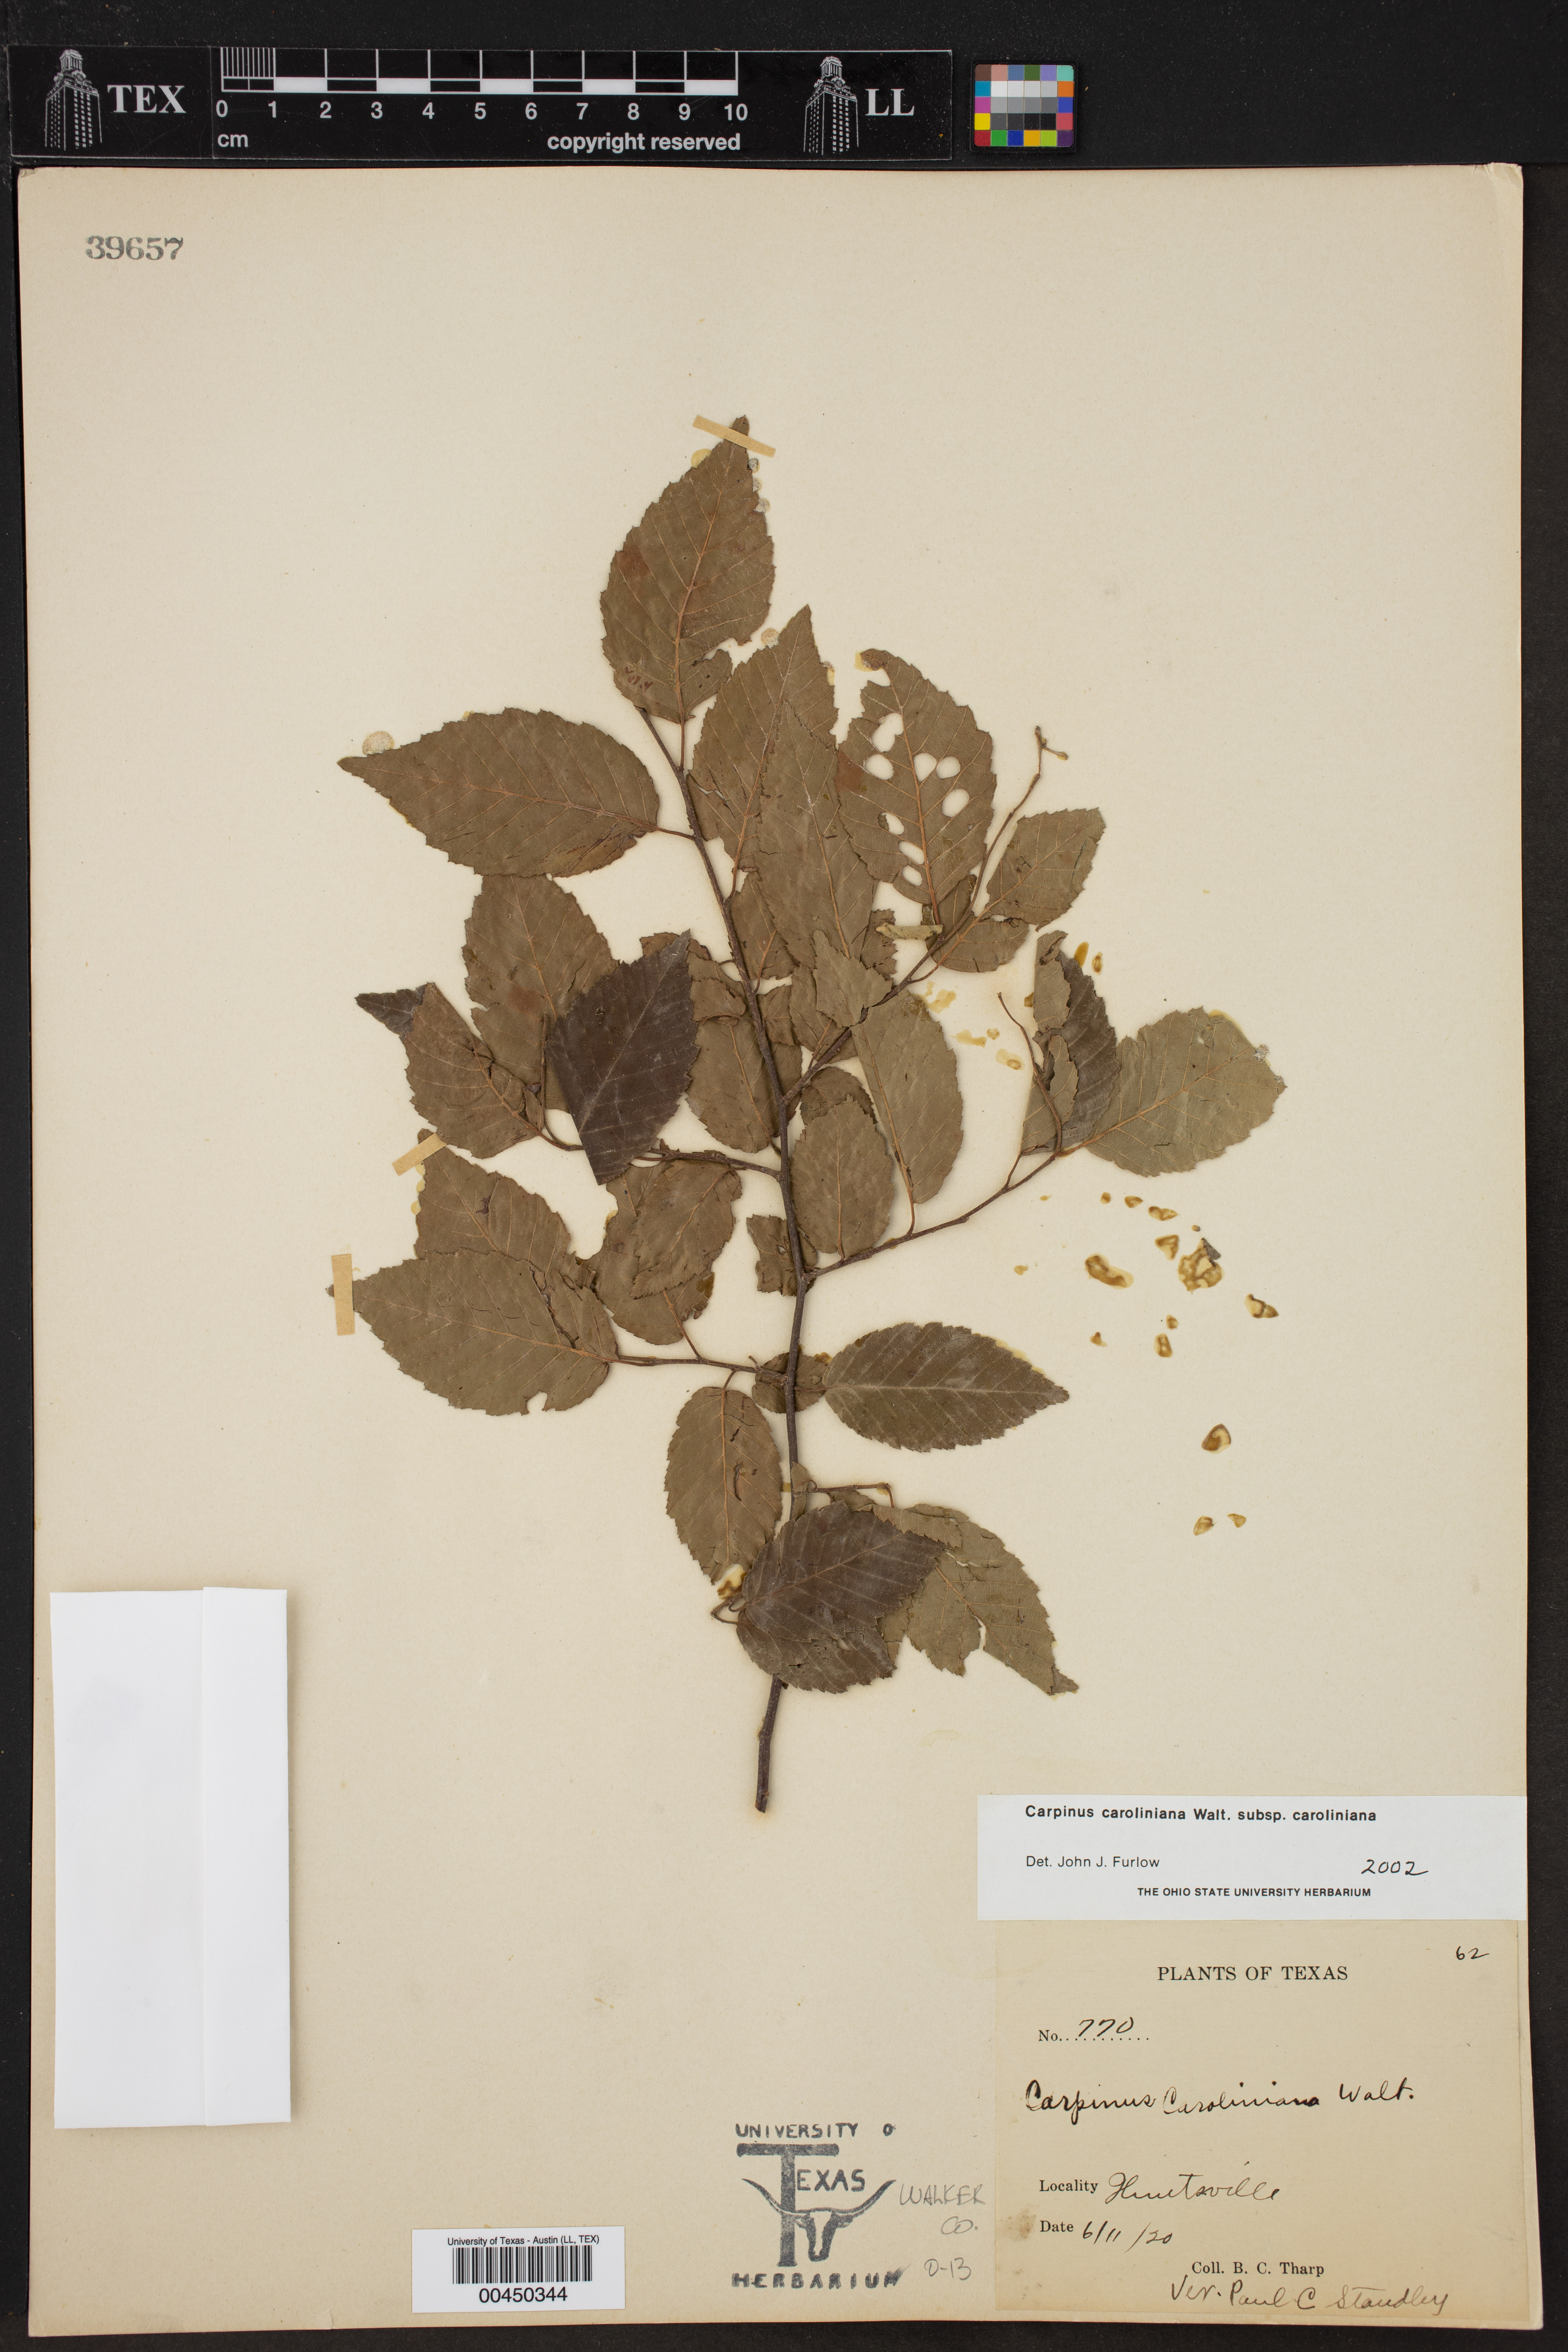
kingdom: Plantae
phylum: Tracheophyta
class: Magnoliopsida
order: Fagales
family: Betulaceae
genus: Carpinus
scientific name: Carpinus caroliniana
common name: American hornbeam
